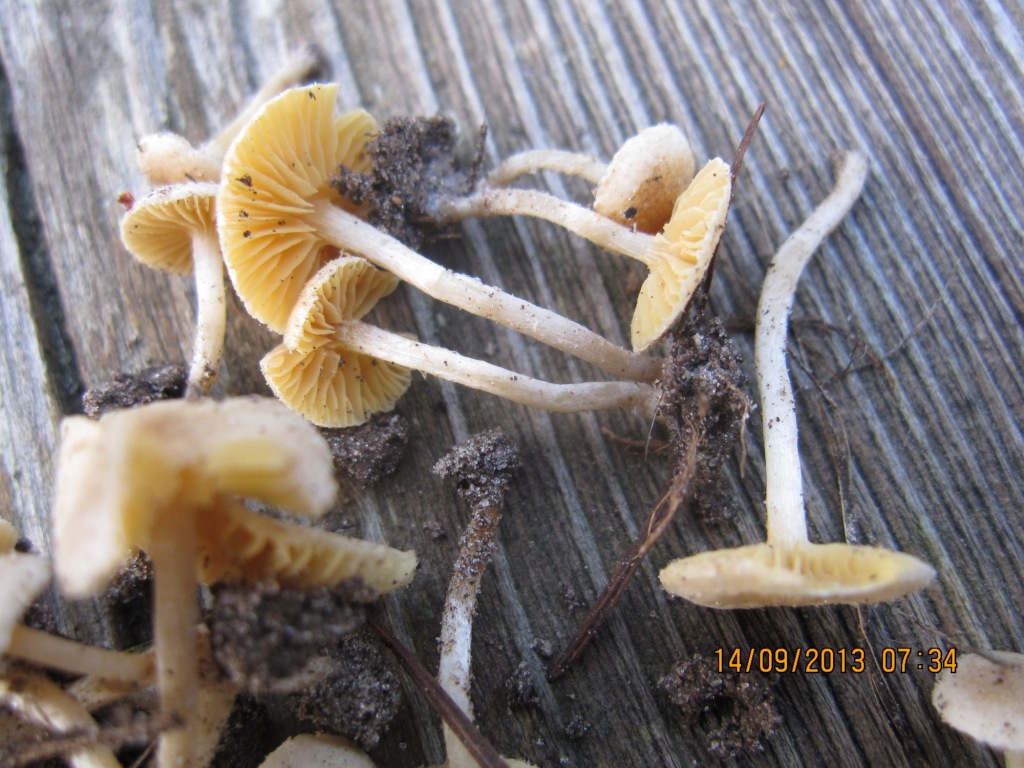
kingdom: Fungi
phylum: Basidiomycota
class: Agaricomycetes
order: Agaricales
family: Tubariaceae
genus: Tubaria
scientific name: Tubaria dispersa
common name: tjørne-fnughat
